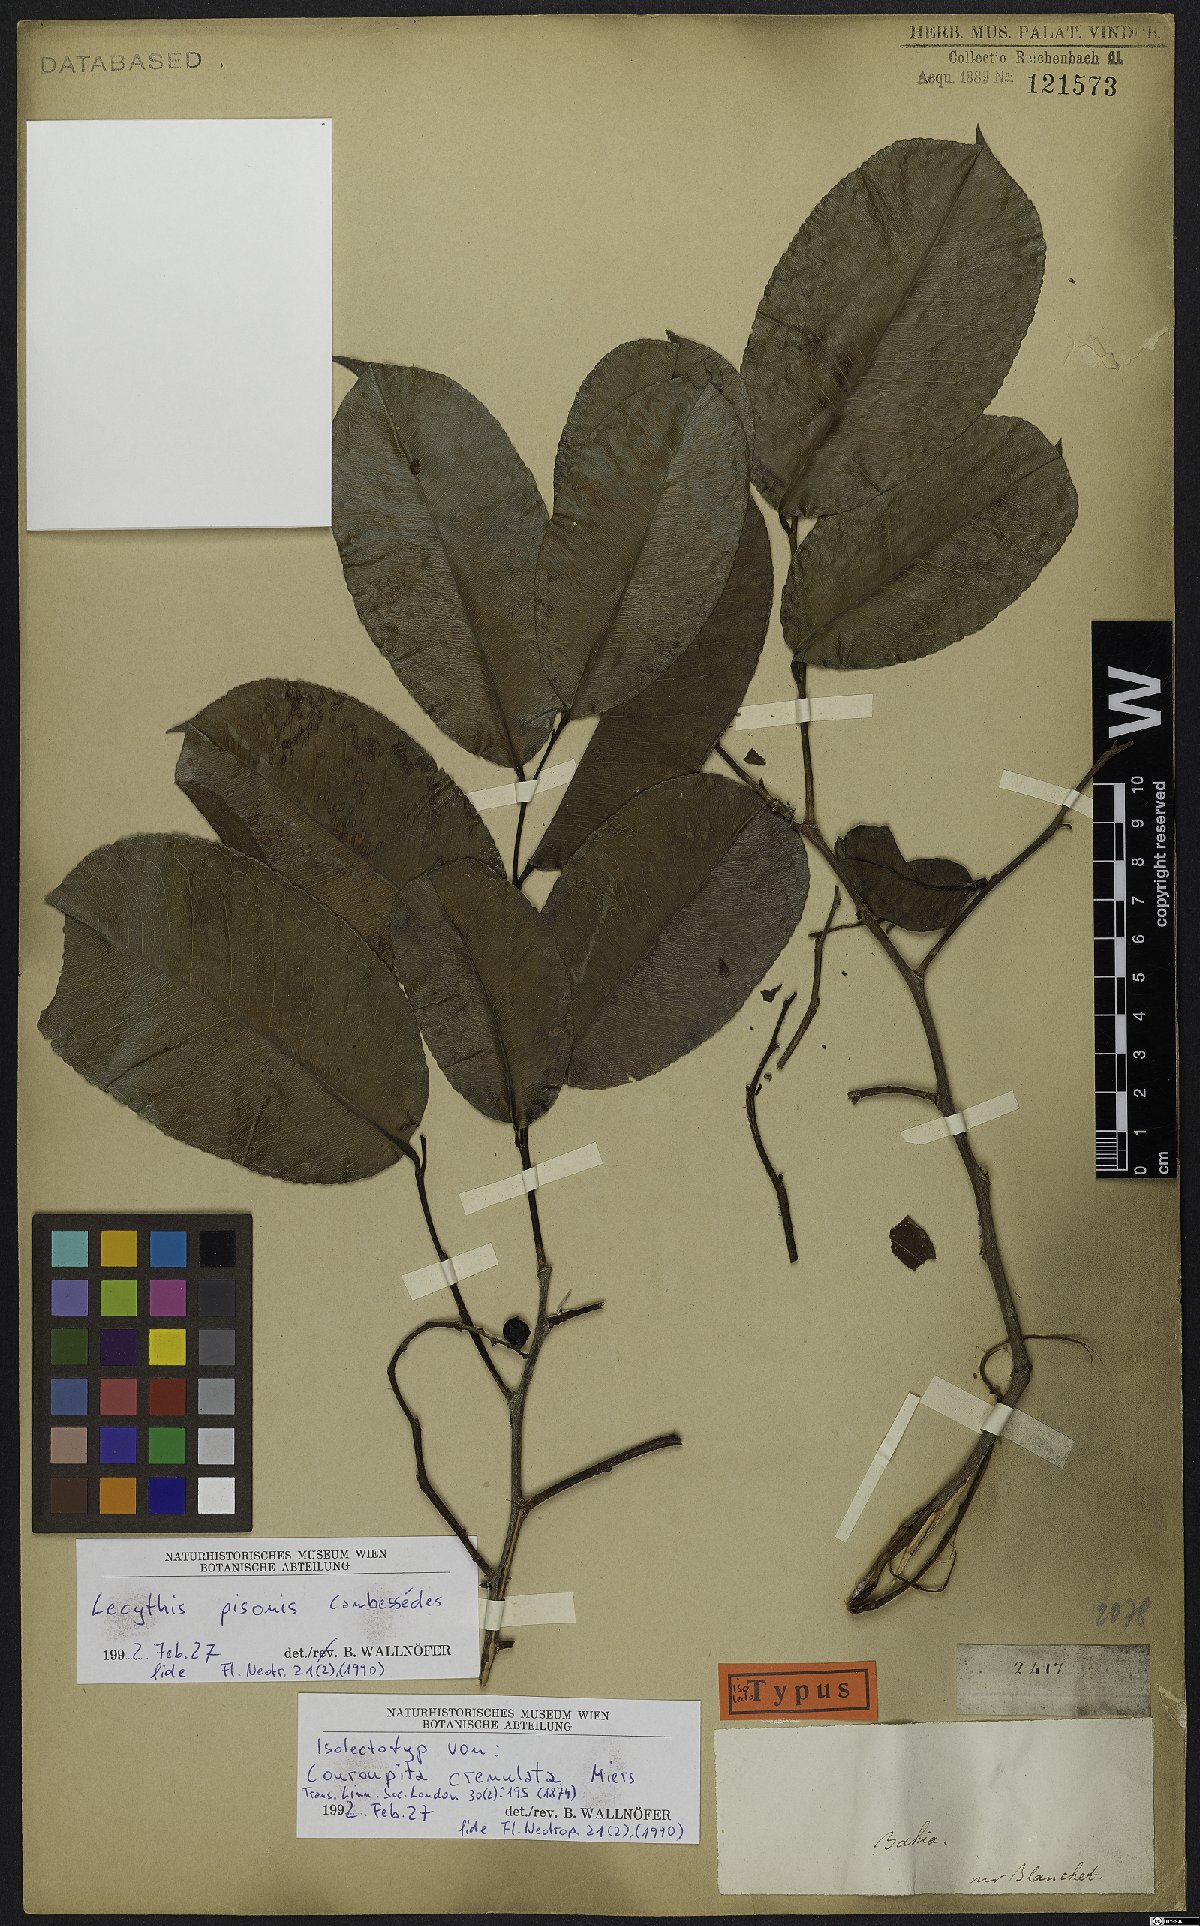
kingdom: Plantae
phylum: Tracheophyta
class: Magnoliopsida
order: Ericales
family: Lecythidaceae
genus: Lecythis
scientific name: Lecythis pisonis
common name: Paradise-nut
